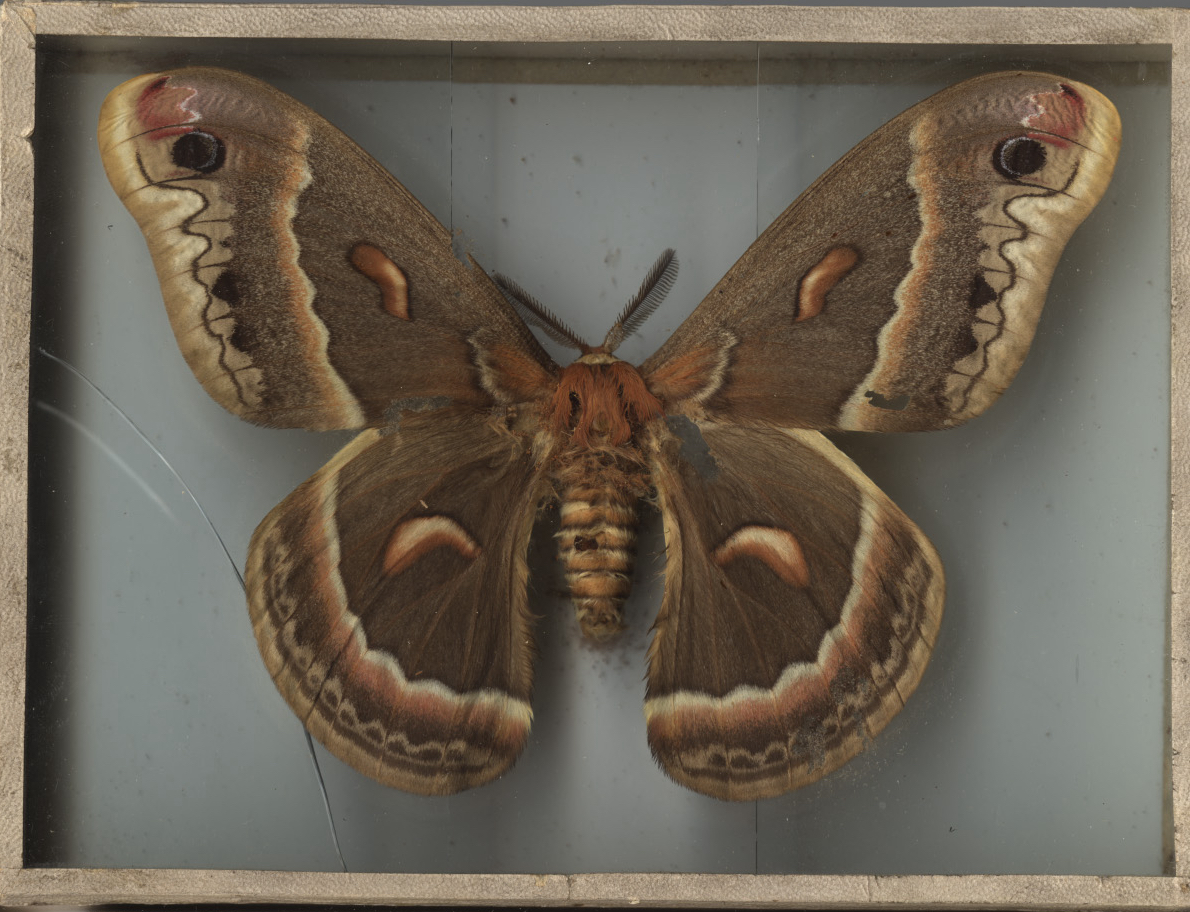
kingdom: Animalia
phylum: Arthropoda
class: Insecta
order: Lepidoptera
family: Saturniidae
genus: Hyalophora
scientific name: Hyalophora cecropia
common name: Cecropia Silkmoth
